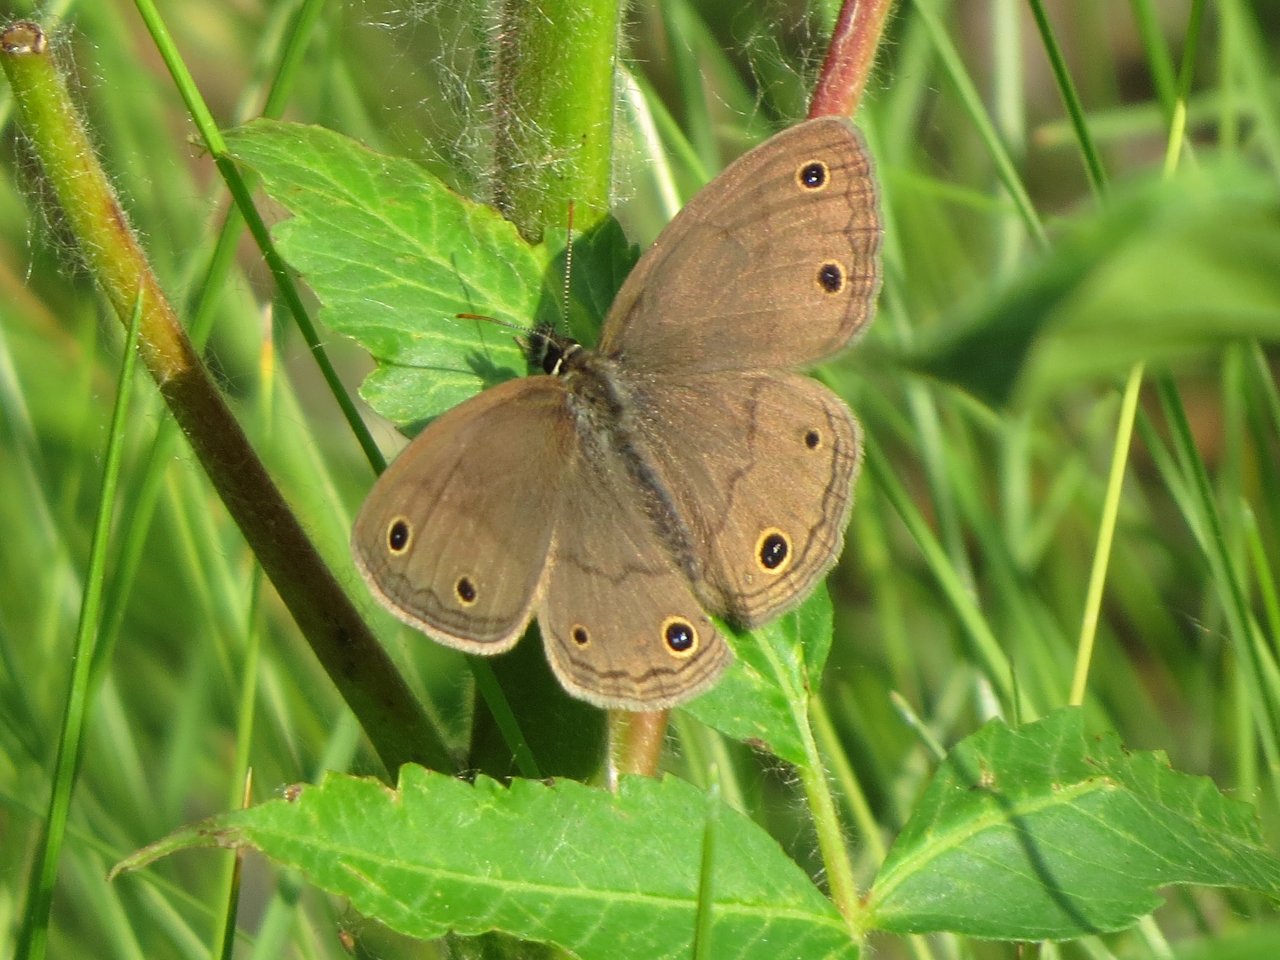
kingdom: Animalia
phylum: Arthropoda
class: Insecta
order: Lepidoptera
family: Nymphalidae
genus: Euptychia
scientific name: Euptychia cymela
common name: Little Wood Satyr
